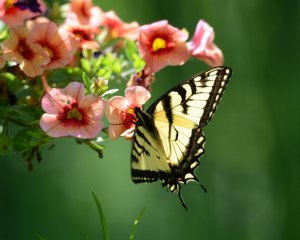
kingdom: Animalia
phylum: Arthropoda
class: Insecta
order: Lepidoptera
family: Papilionidae
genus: Pterourus
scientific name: Pterourus glaucus
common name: Eastern Tiger Swallowtail
